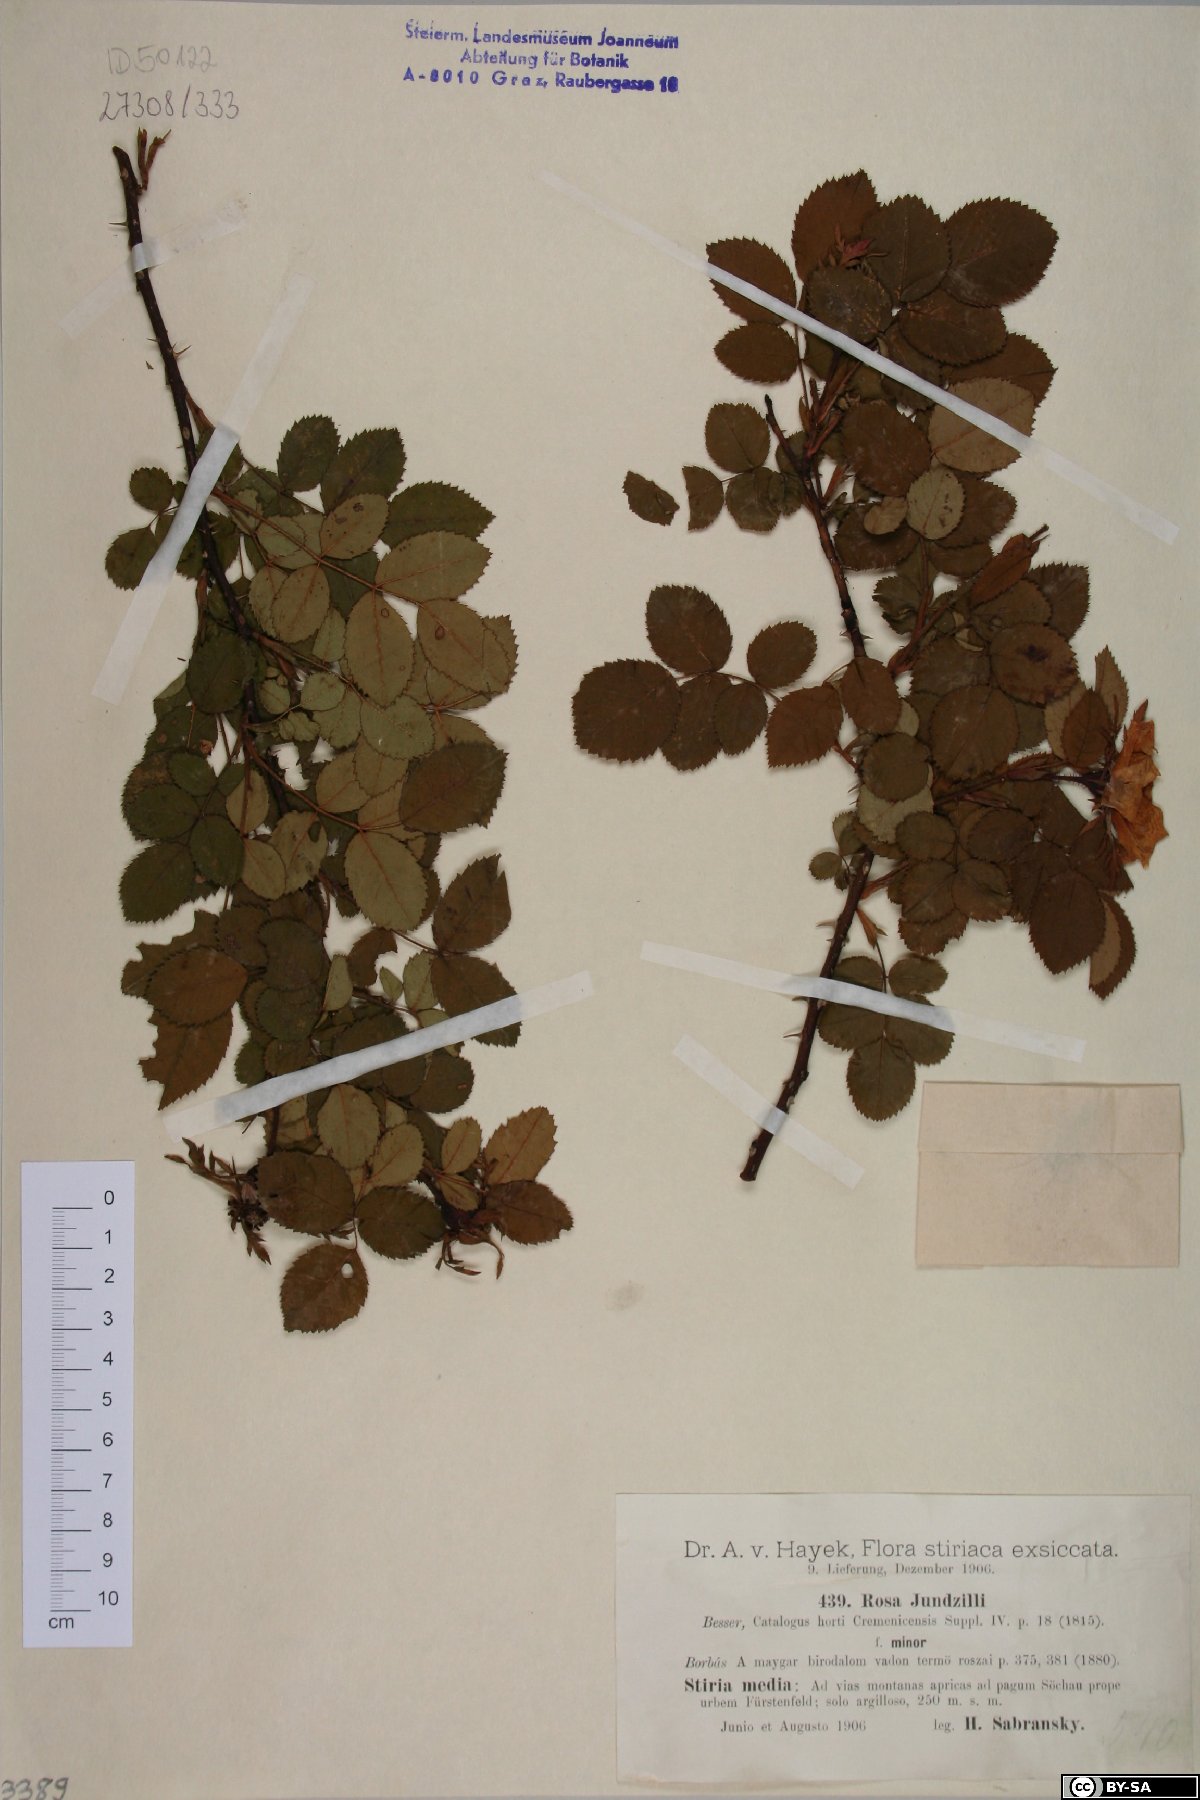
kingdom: Plantae
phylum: Tracheophyta
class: Magnoliopsida
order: Rosales
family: Rosaceae
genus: Rosa
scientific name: Rosa marginata
